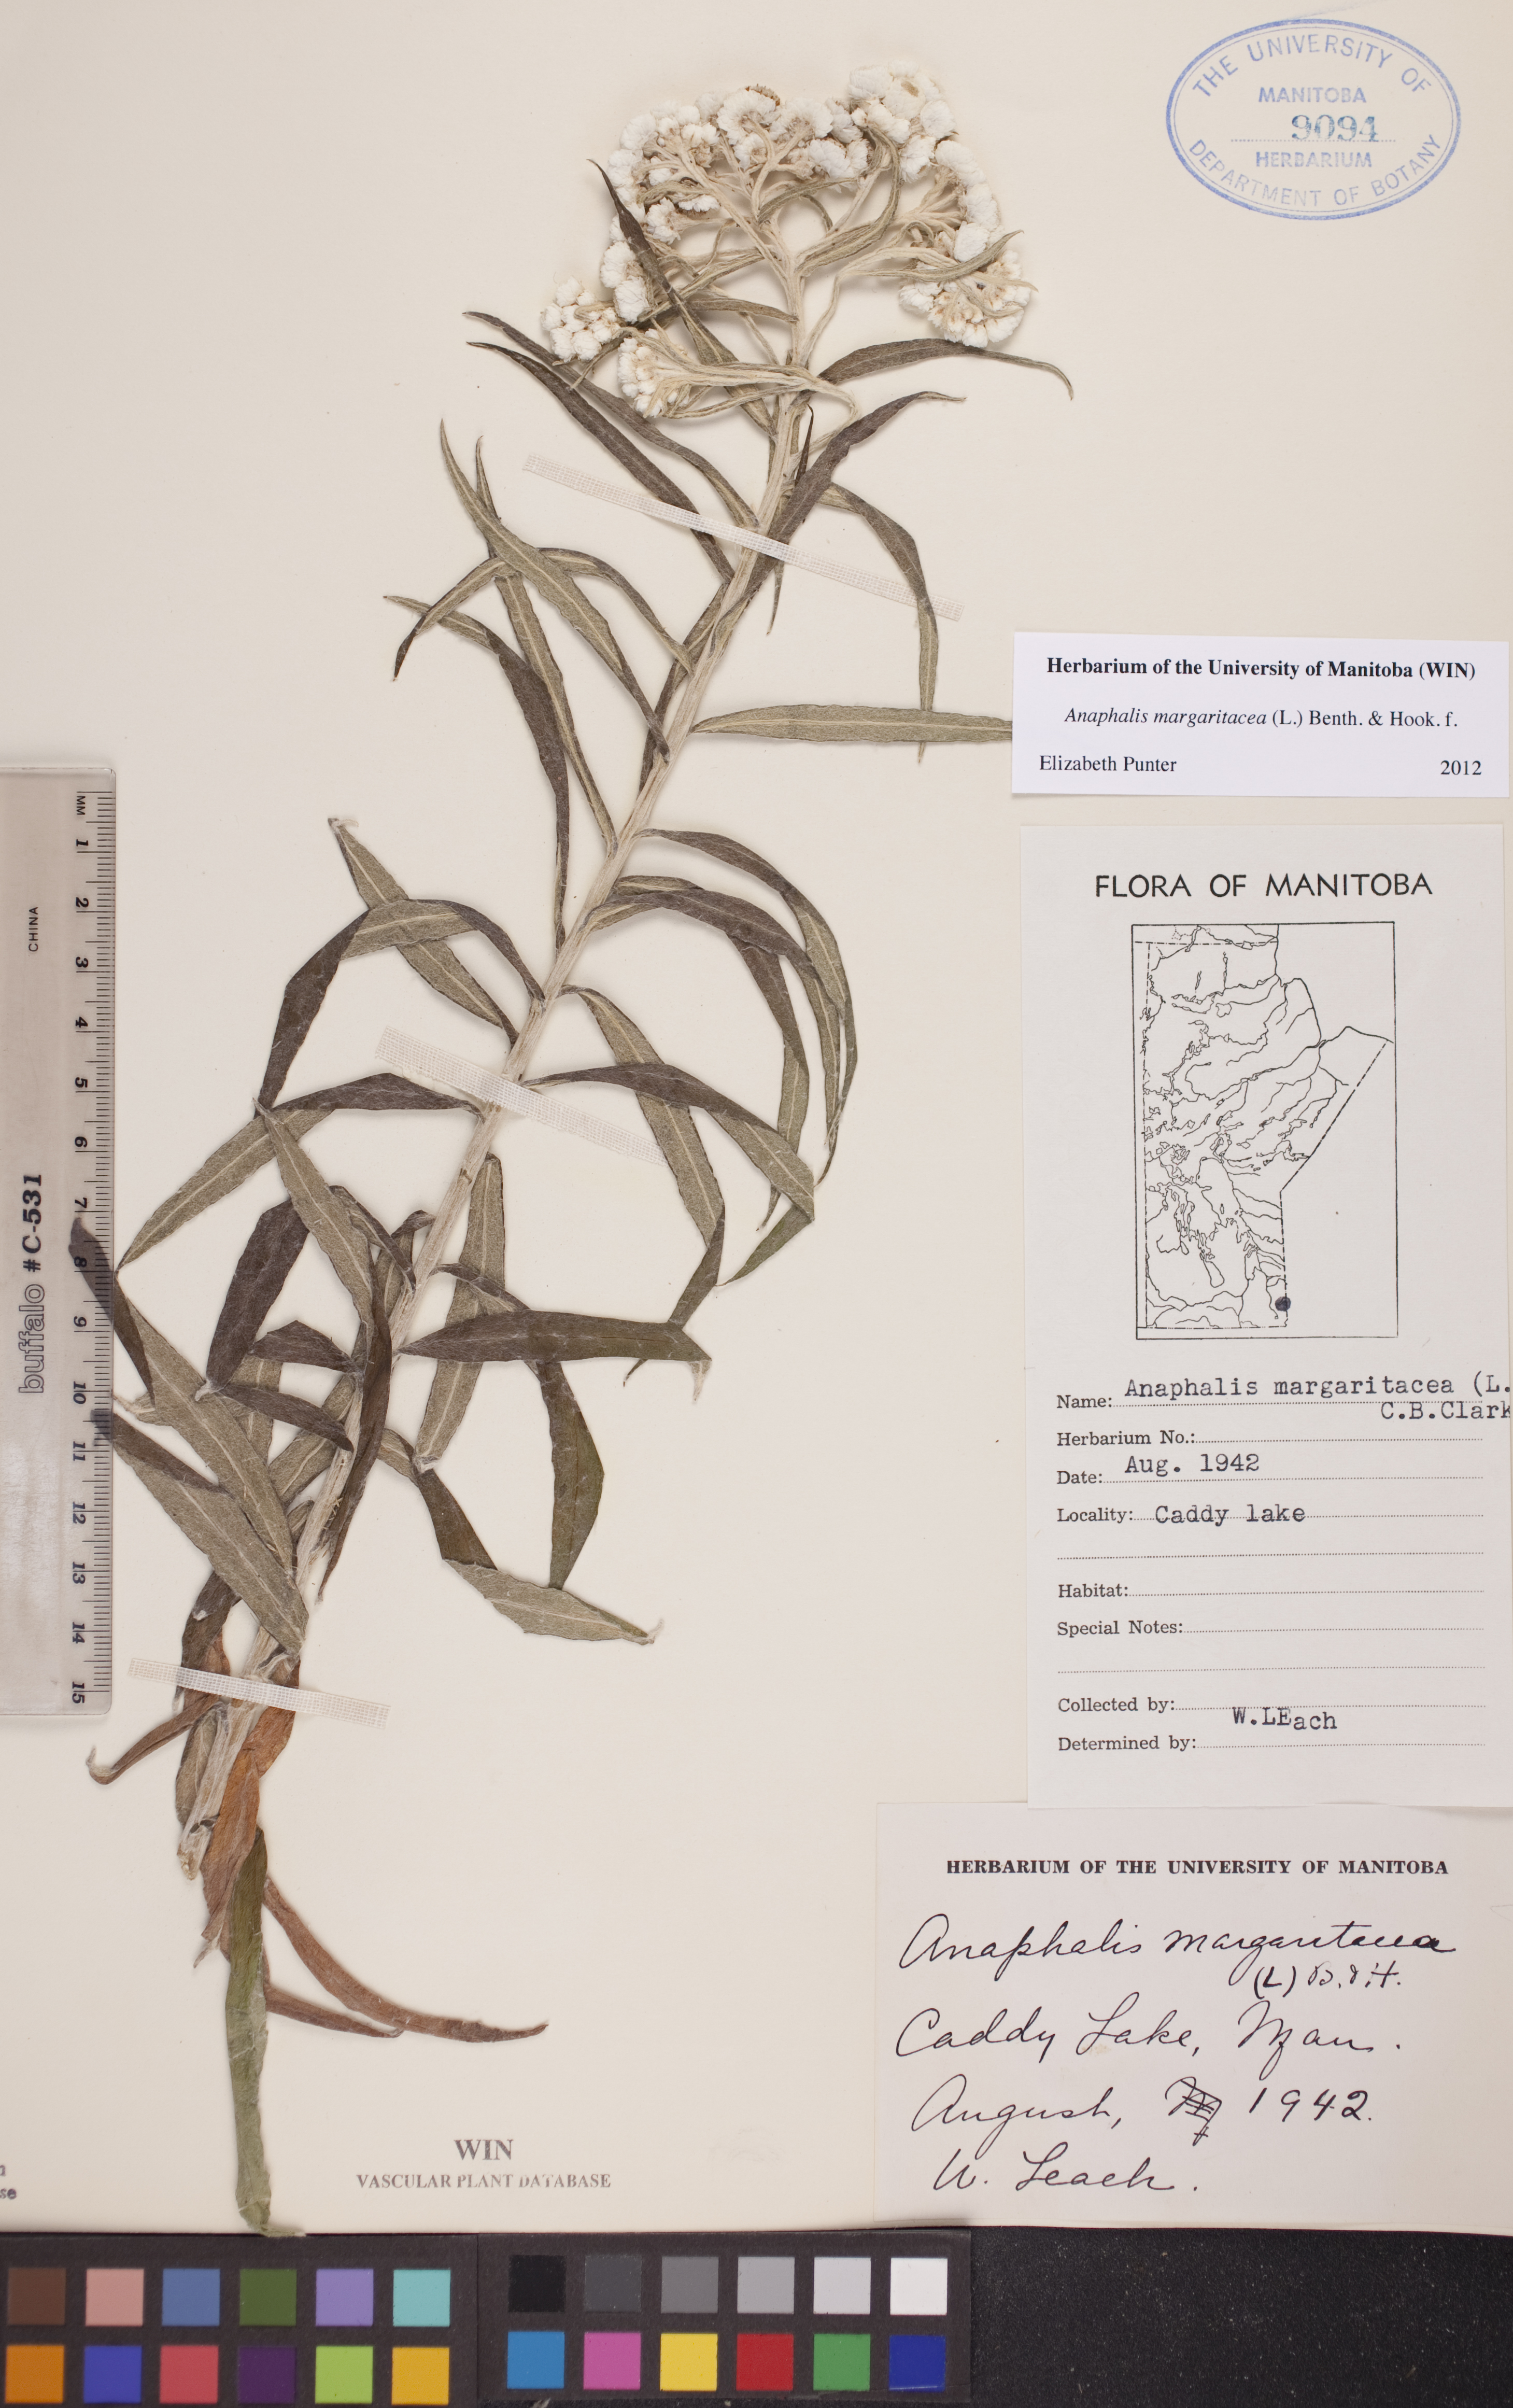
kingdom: Plantae
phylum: Tracheophyta
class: Magnoliopsida
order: Asterales
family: Asteraceae
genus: Anaphalis
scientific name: Anaphalis margaritacea
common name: Pearly everlasting
